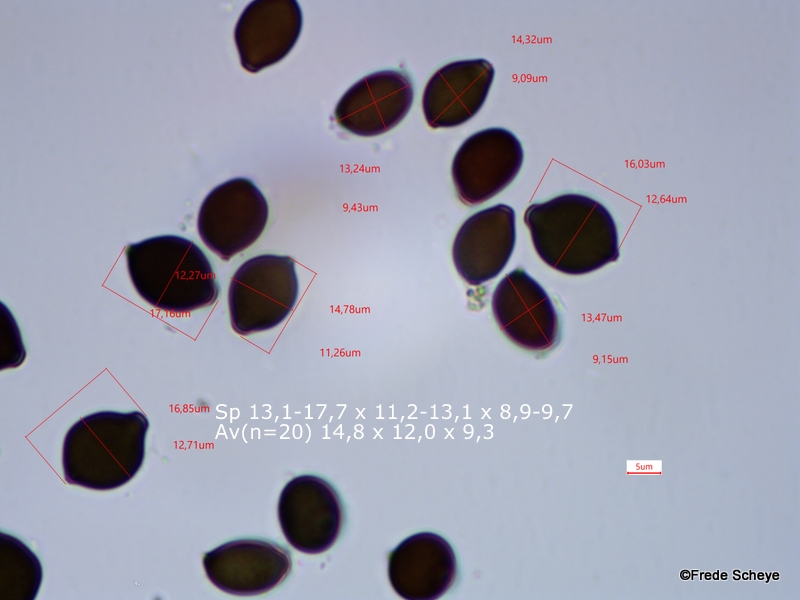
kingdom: Fungi
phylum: Basidiomycota
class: Agaricomycetes
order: Agaricales
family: Bolbitiaceae
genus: Panaeolus
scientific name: Panaeolus
